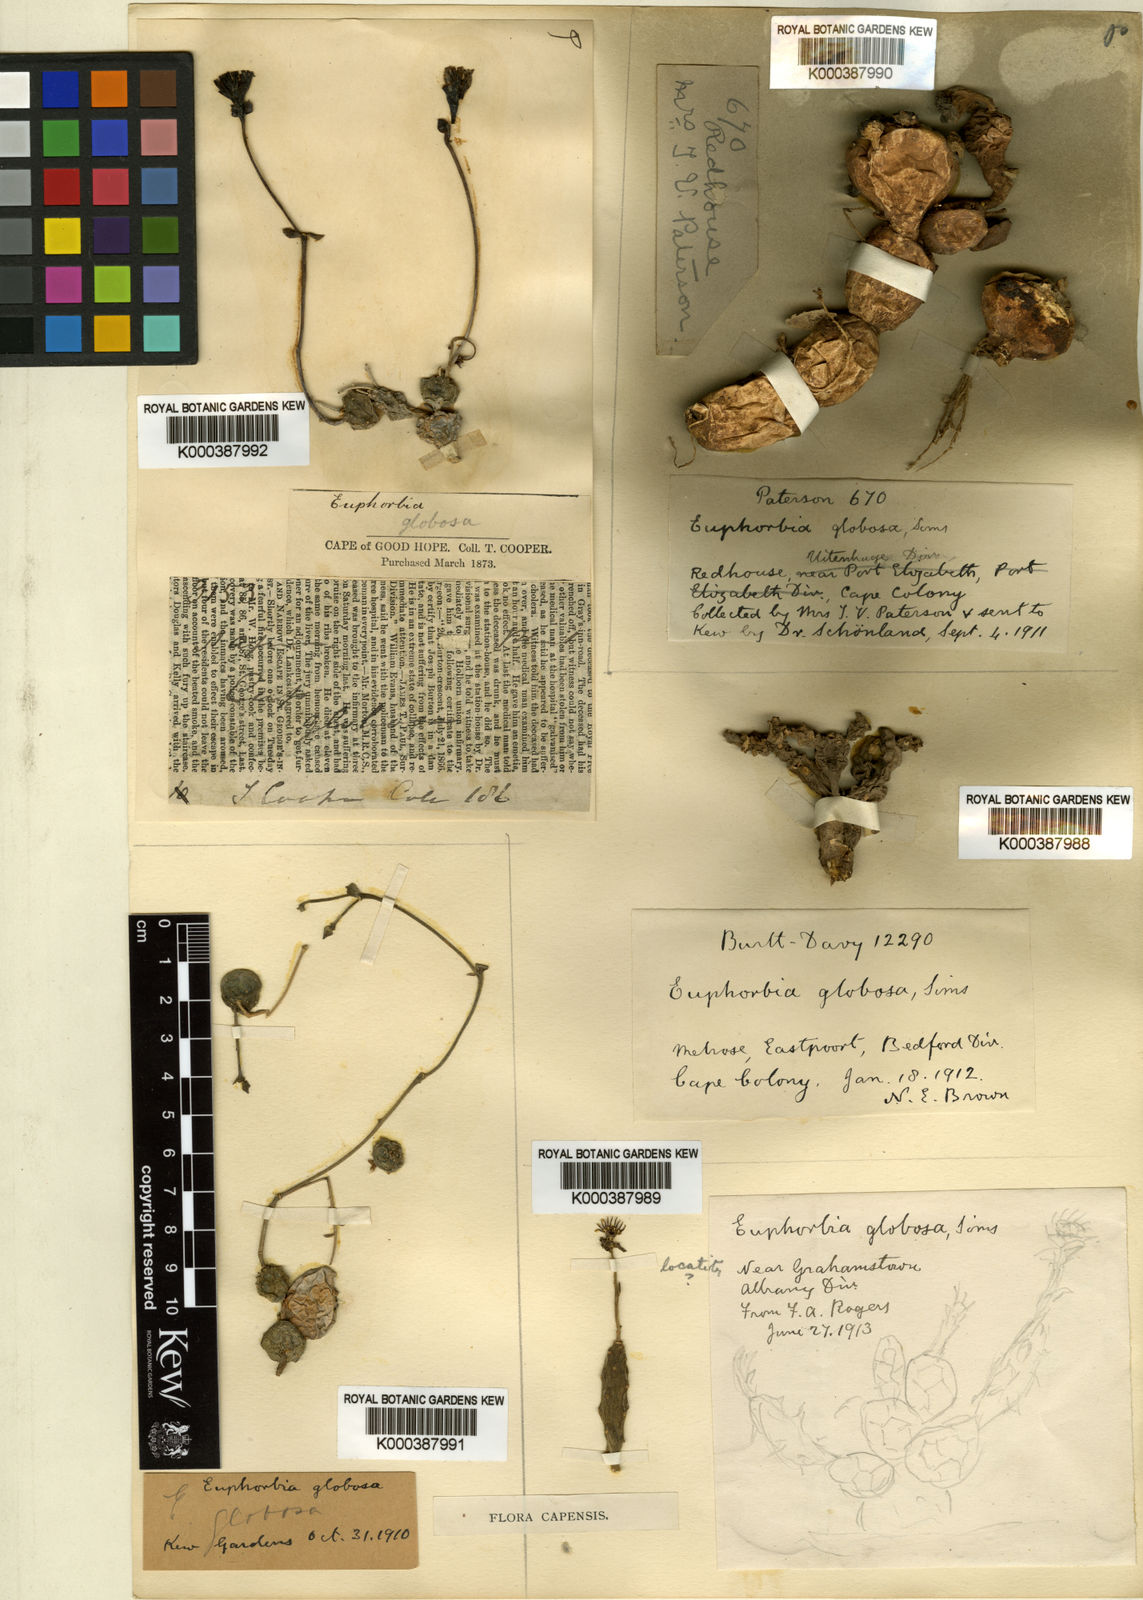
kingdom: Plantae
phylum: Tracheophyta
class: Magnoliopsida
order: Malpighiales
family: Euphorbiaceae
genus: Euphorbia
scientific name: Euphorbia globosa
